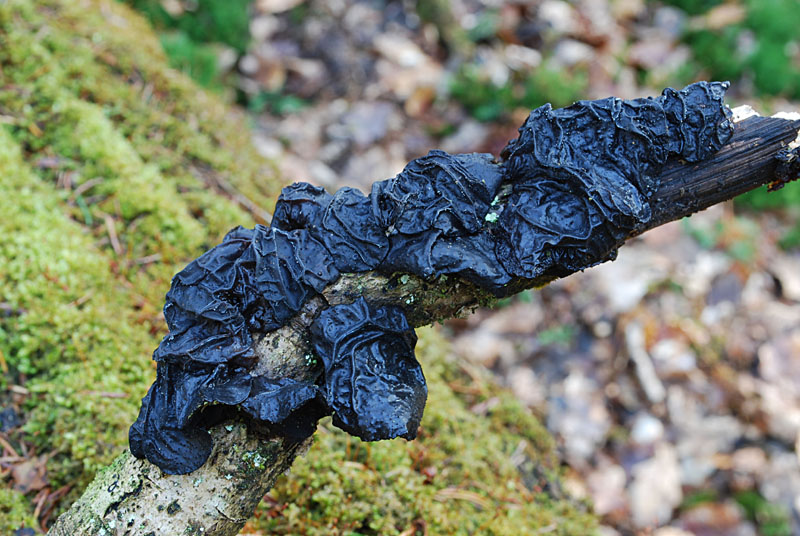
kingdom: Fungi
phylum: Basidiomycota
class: Agaricomycetes
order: Auriculariales
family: Auriculariaceae
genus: Exidia
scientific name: Exidia glandulosa
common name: ege-bævretop
